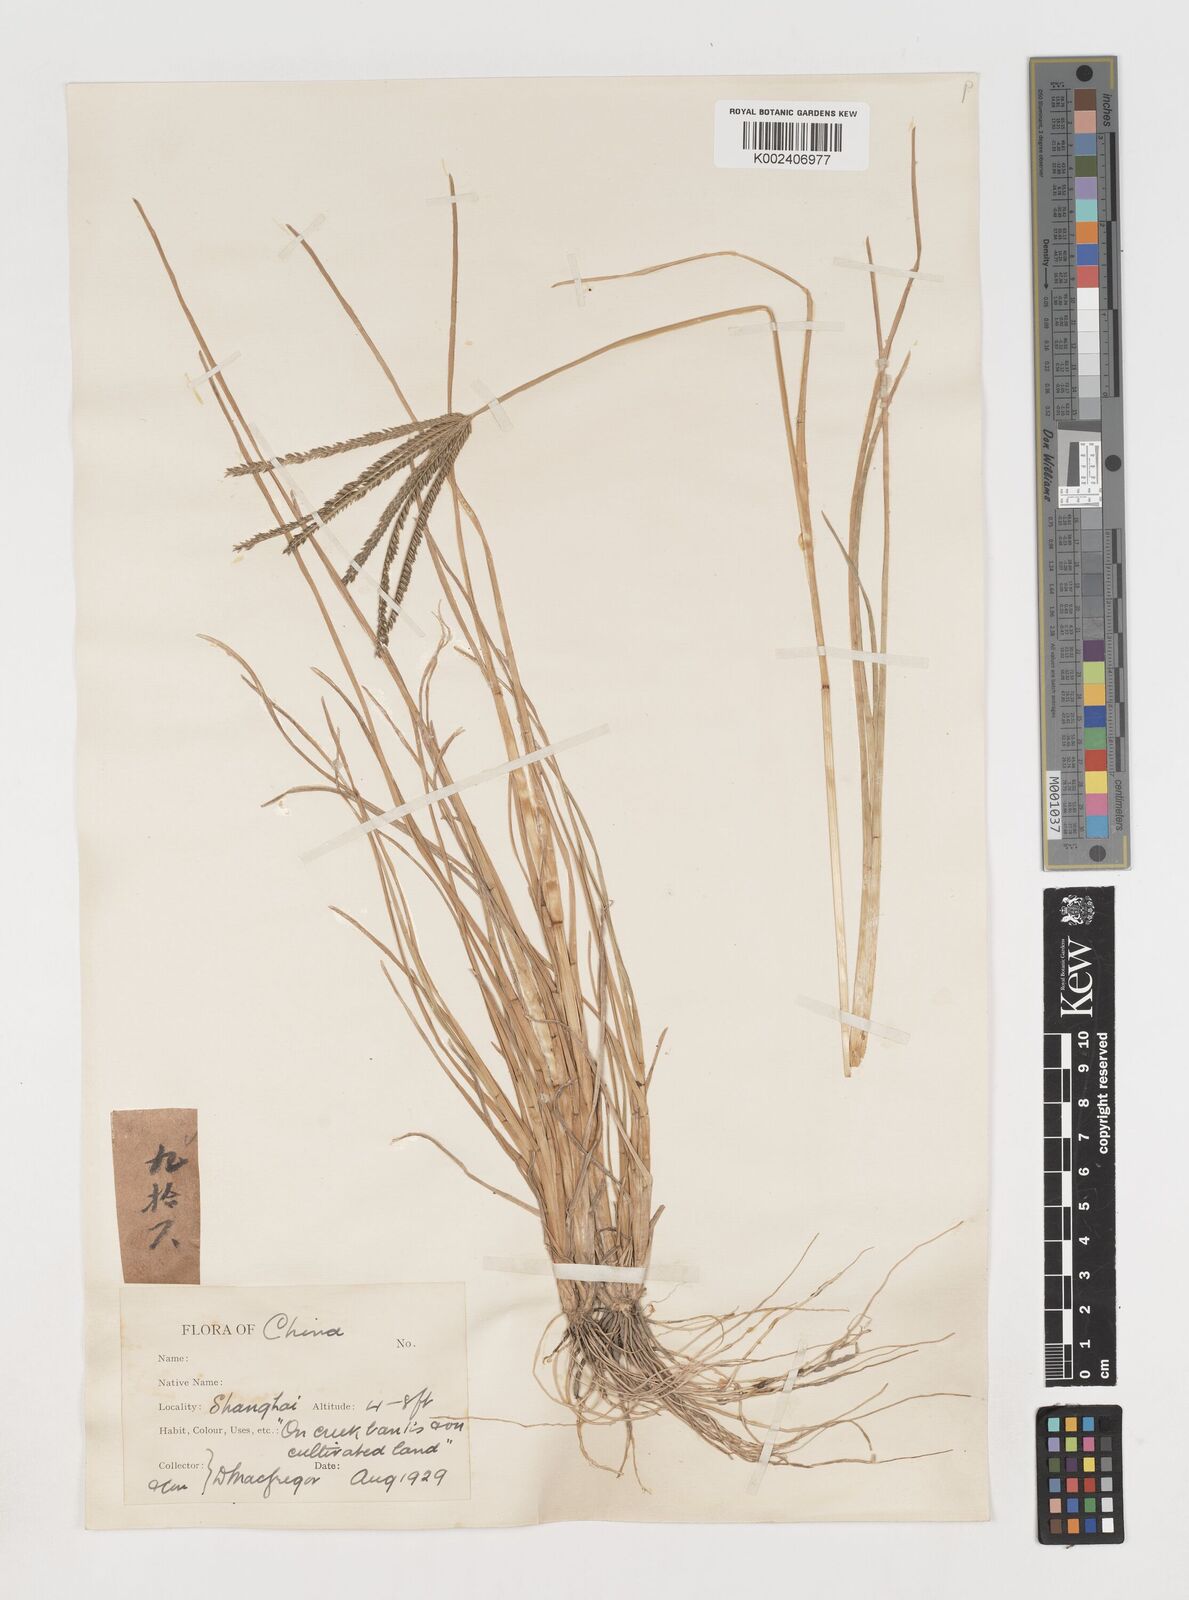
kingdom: Plantae
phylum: Tracheophyta
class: Liliopsida
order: Poales
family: Poaceae
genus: Eleusine
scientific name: Eleusine indica
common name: Yard-grass
